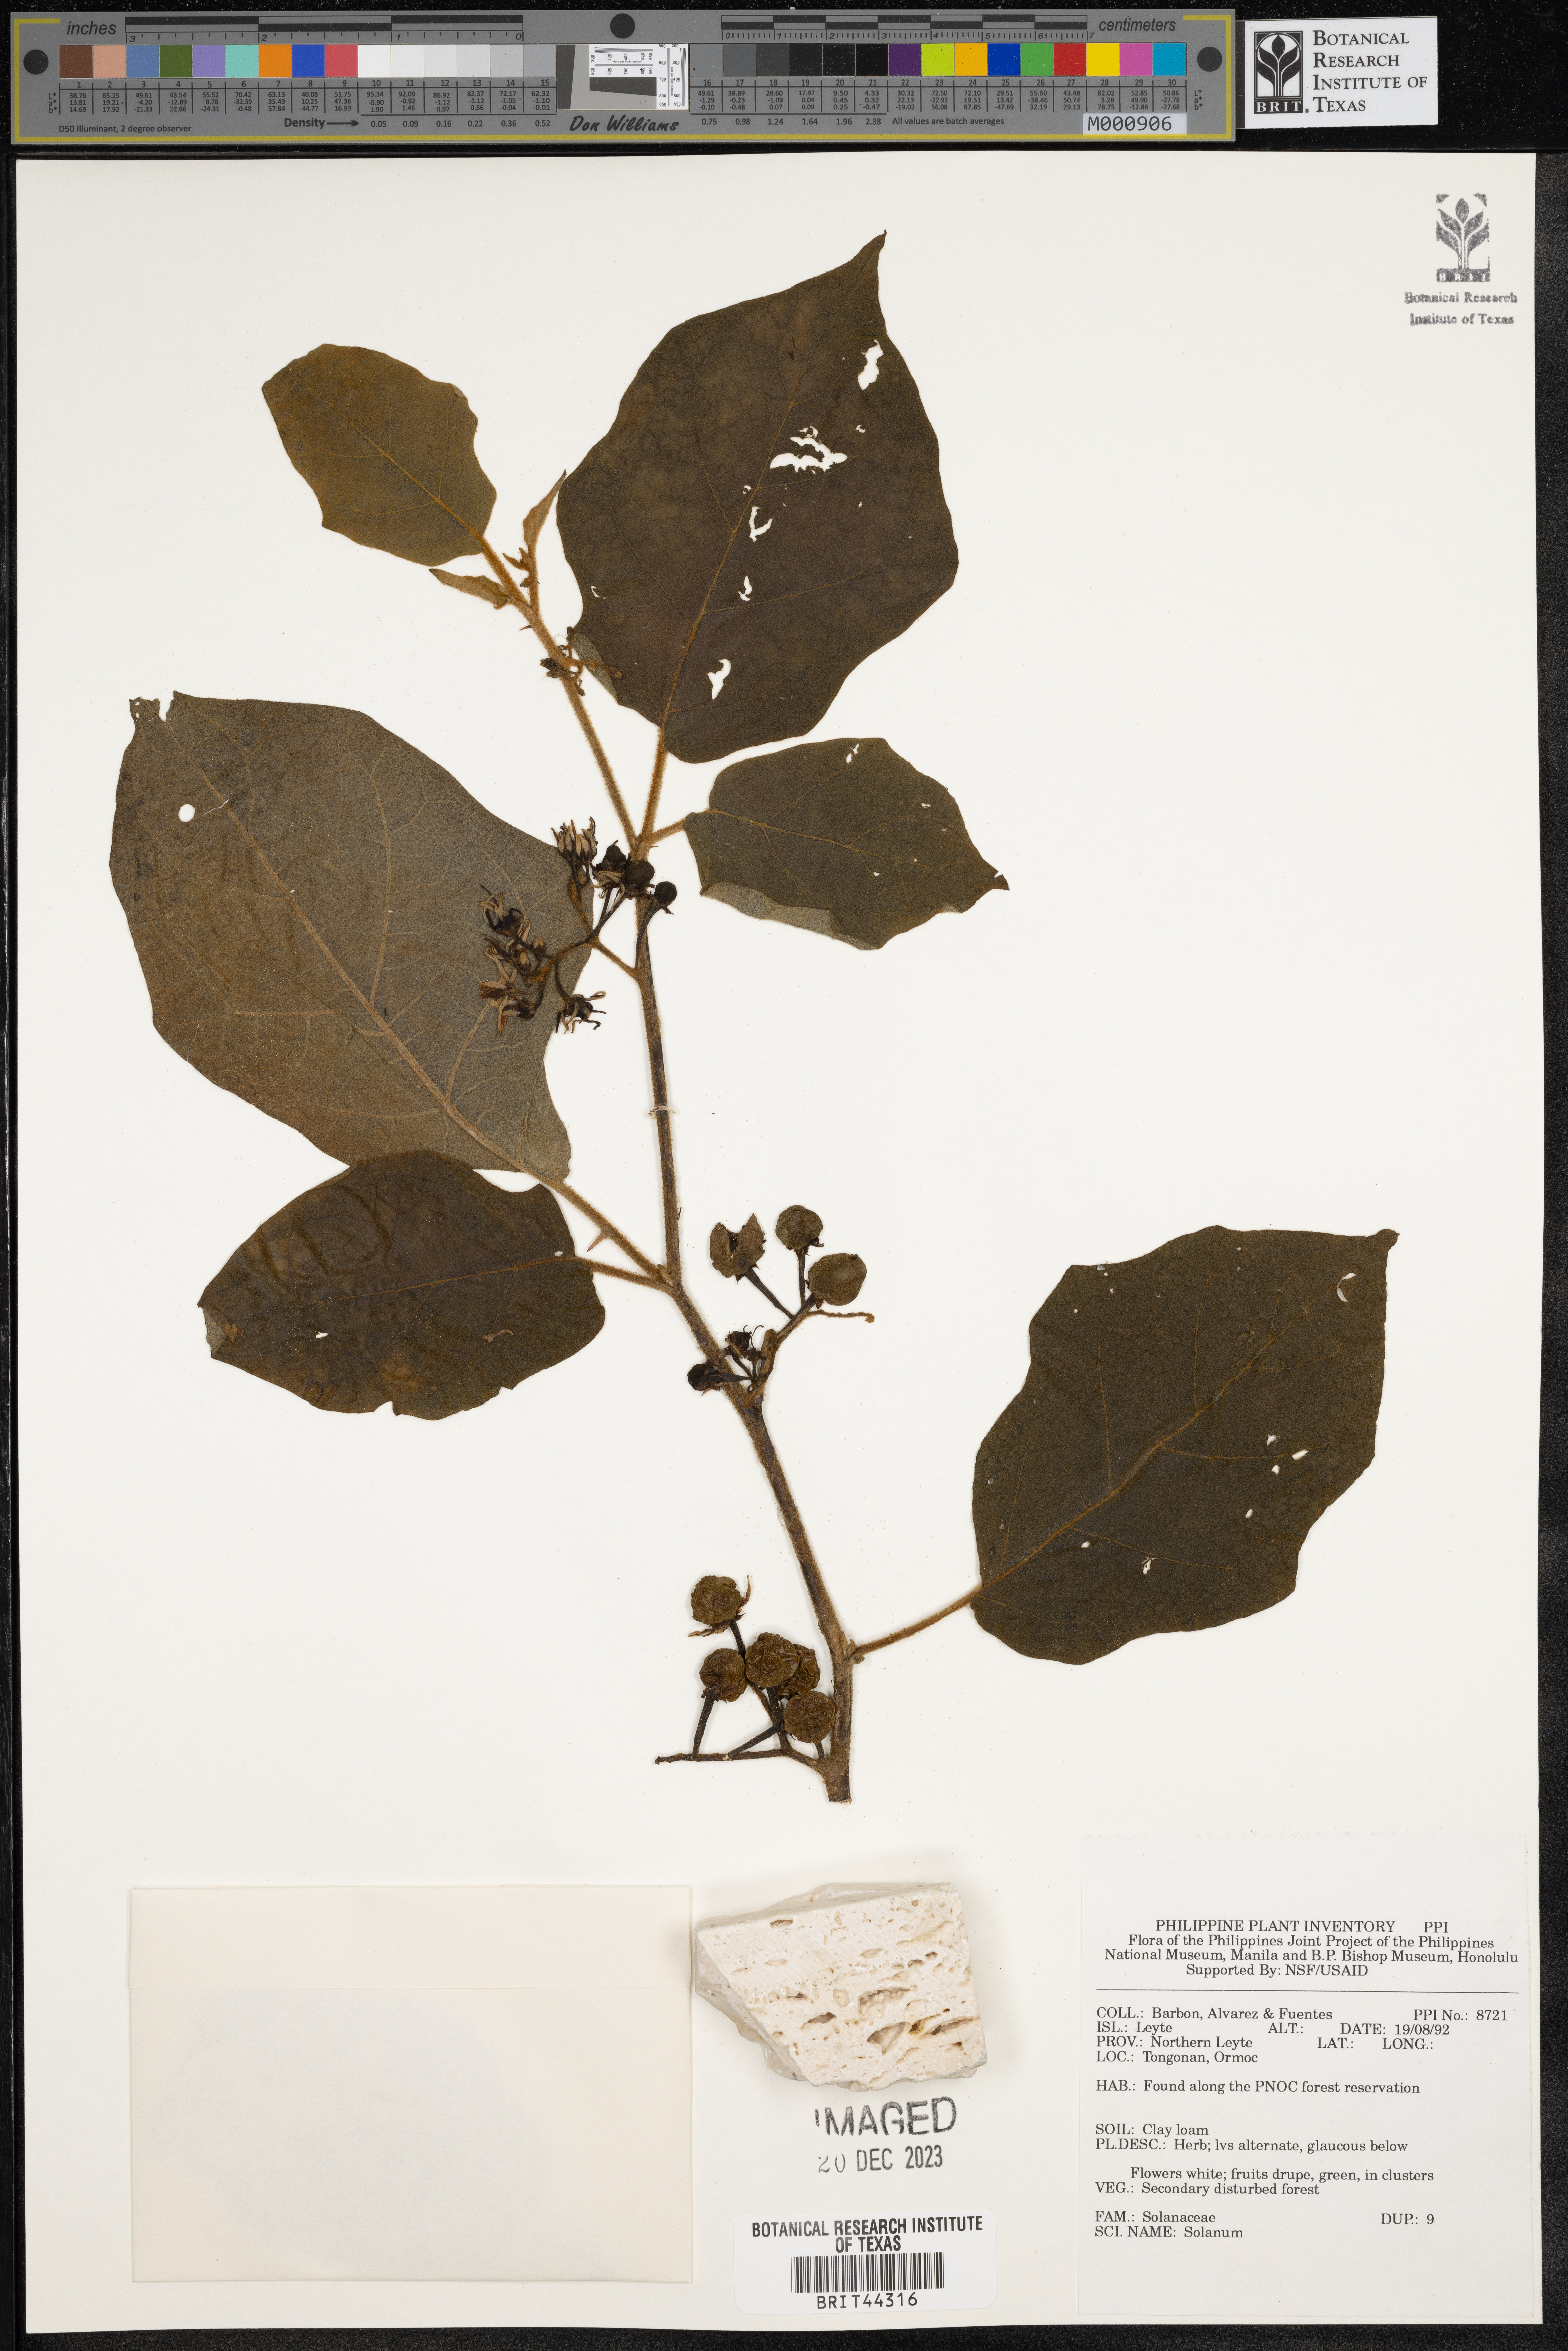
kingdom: Plantae
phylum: Tracheophyta
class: Magnoliopsida
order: Solanales
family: Solanaceae
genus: Solanum
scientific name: Solanum
